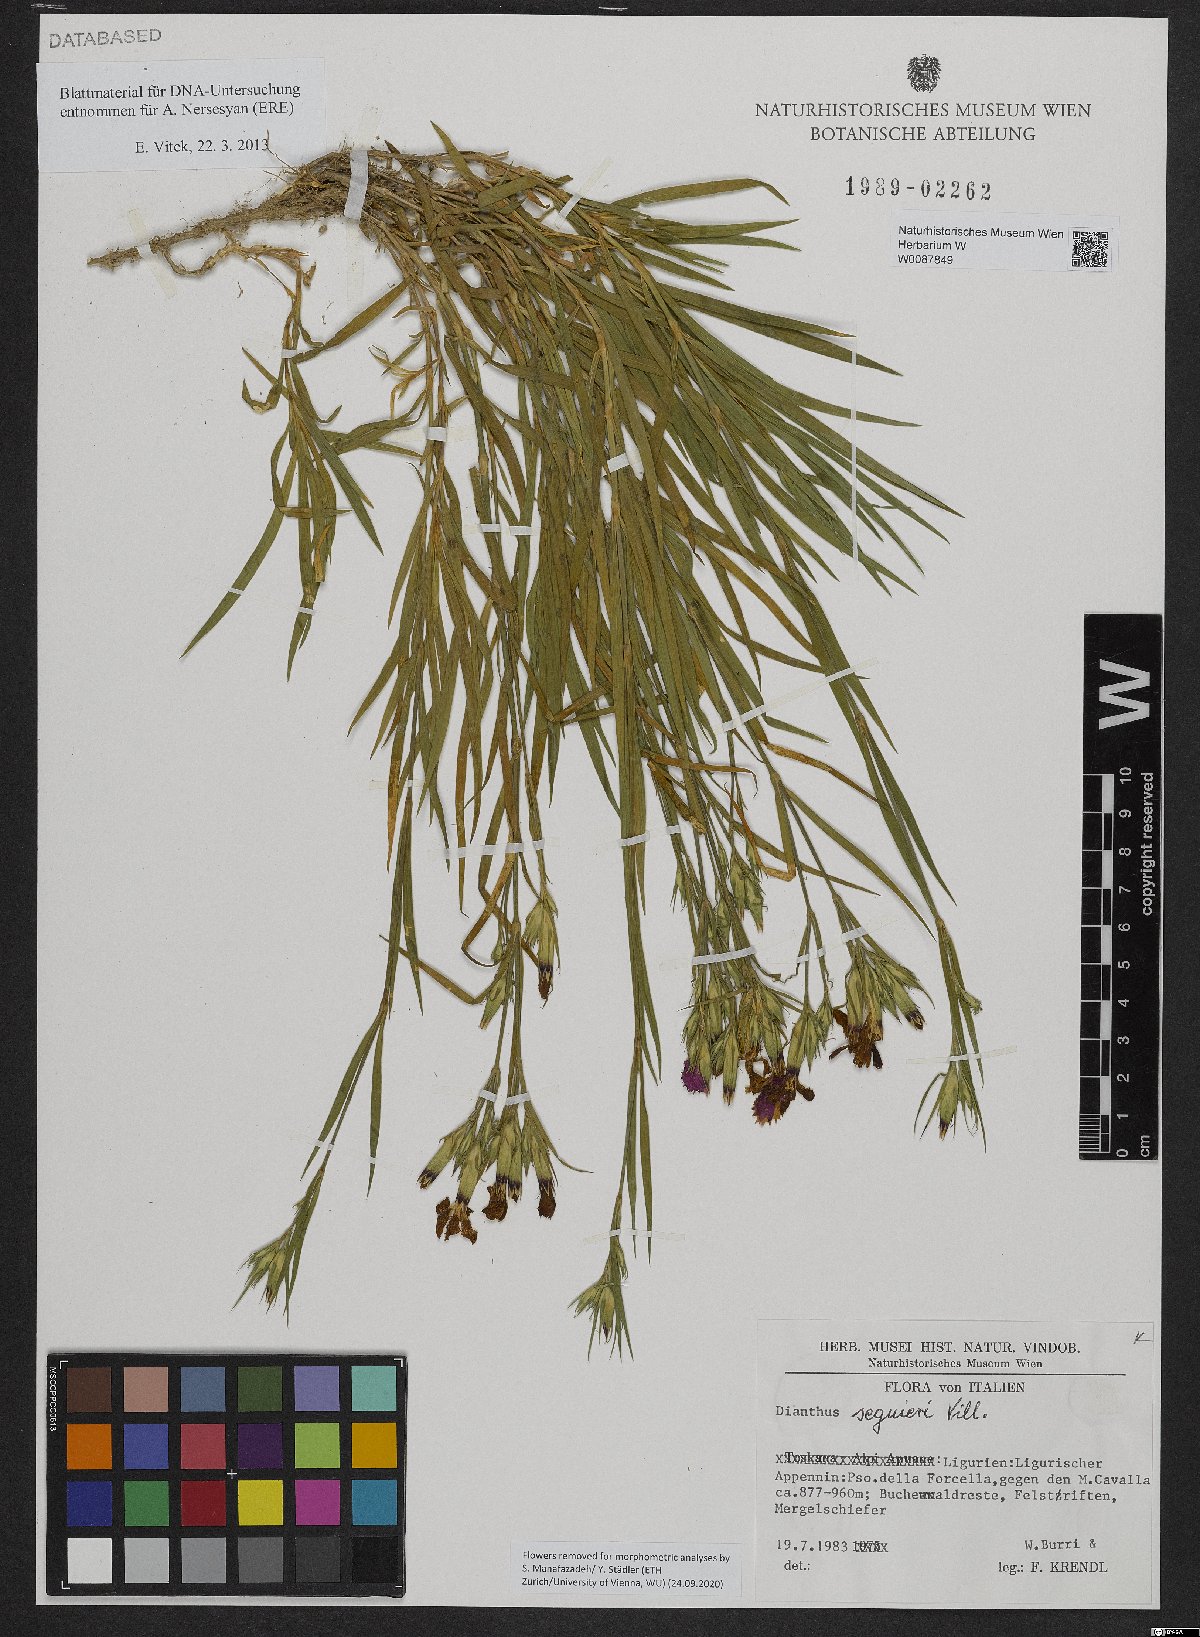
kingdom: Plantae
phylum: Tracheophyta
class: Magnoliopsida
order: Caryophyllales
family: Caryophyllaceae
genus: Dianthus
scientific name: Dianthus seguieri
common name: Ragged pink
